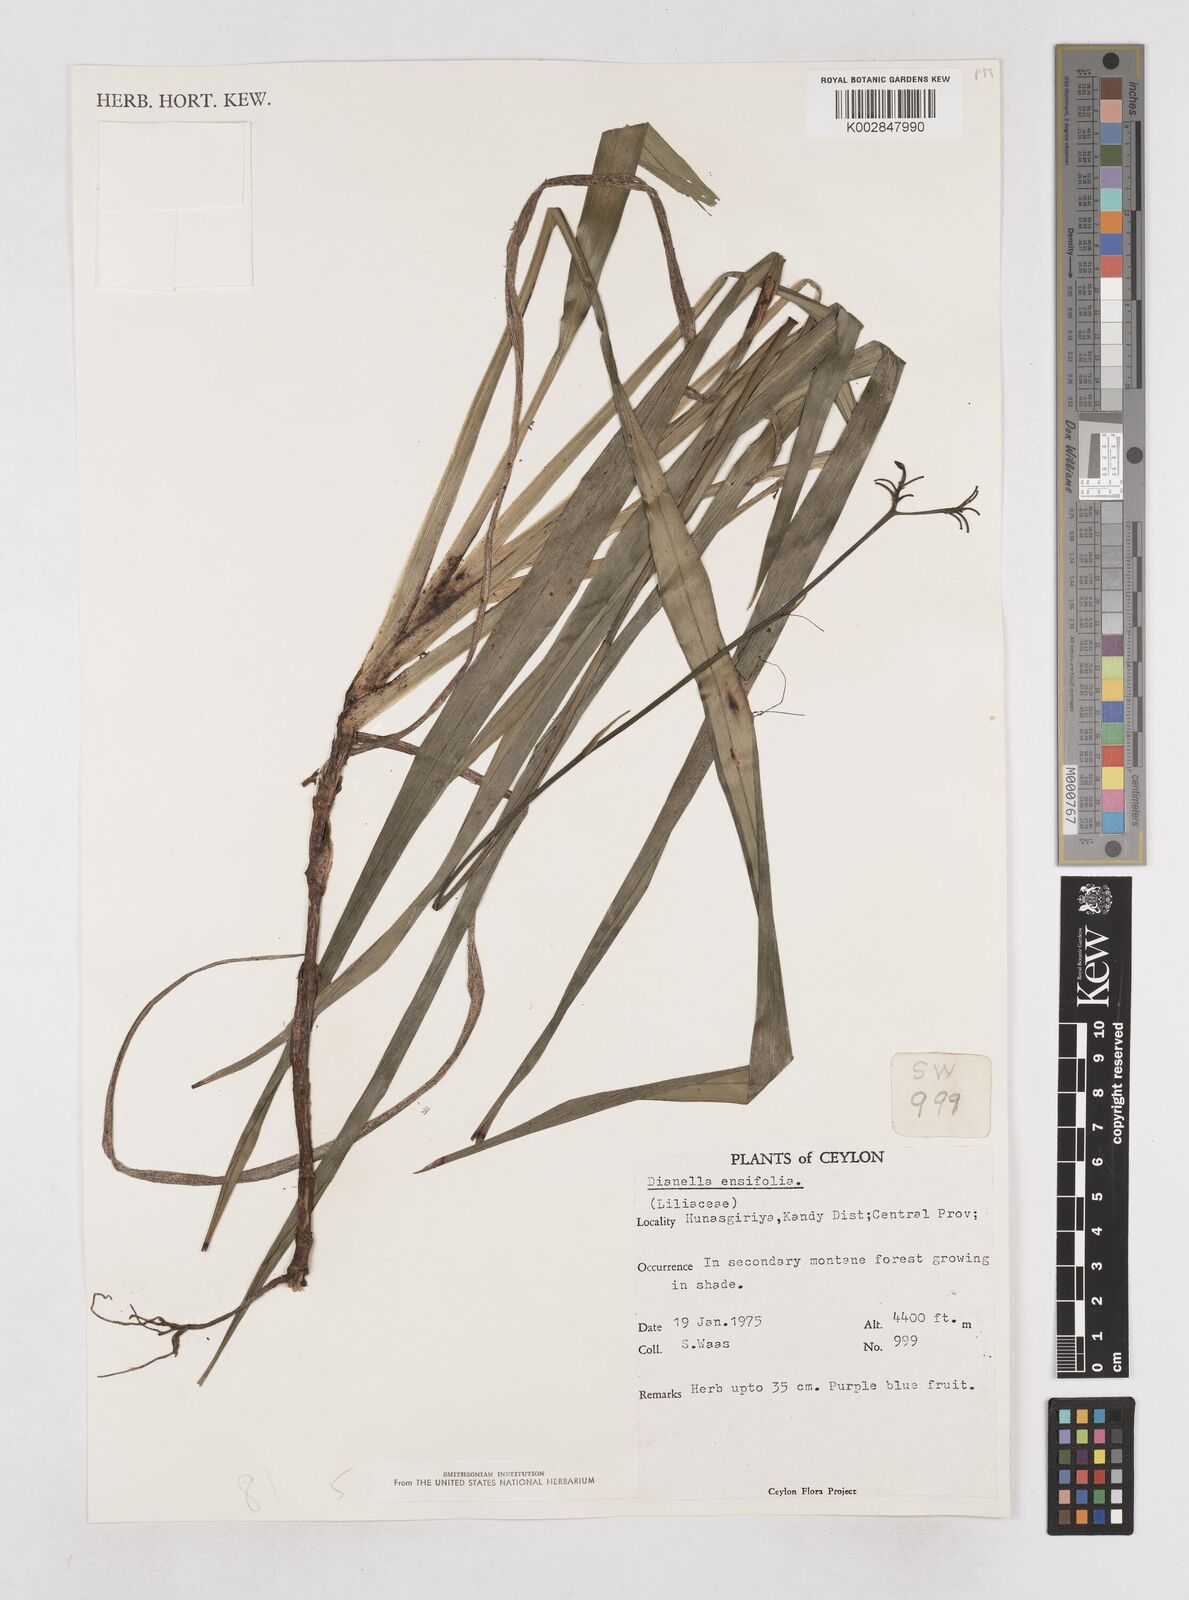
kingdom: Plantae
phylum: Tracheophyta
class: Liliopsida
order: Asparagales
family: Asphodelaceae
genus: Dianella
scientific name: Dianella ensifolia
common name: New zealand lilyplant
